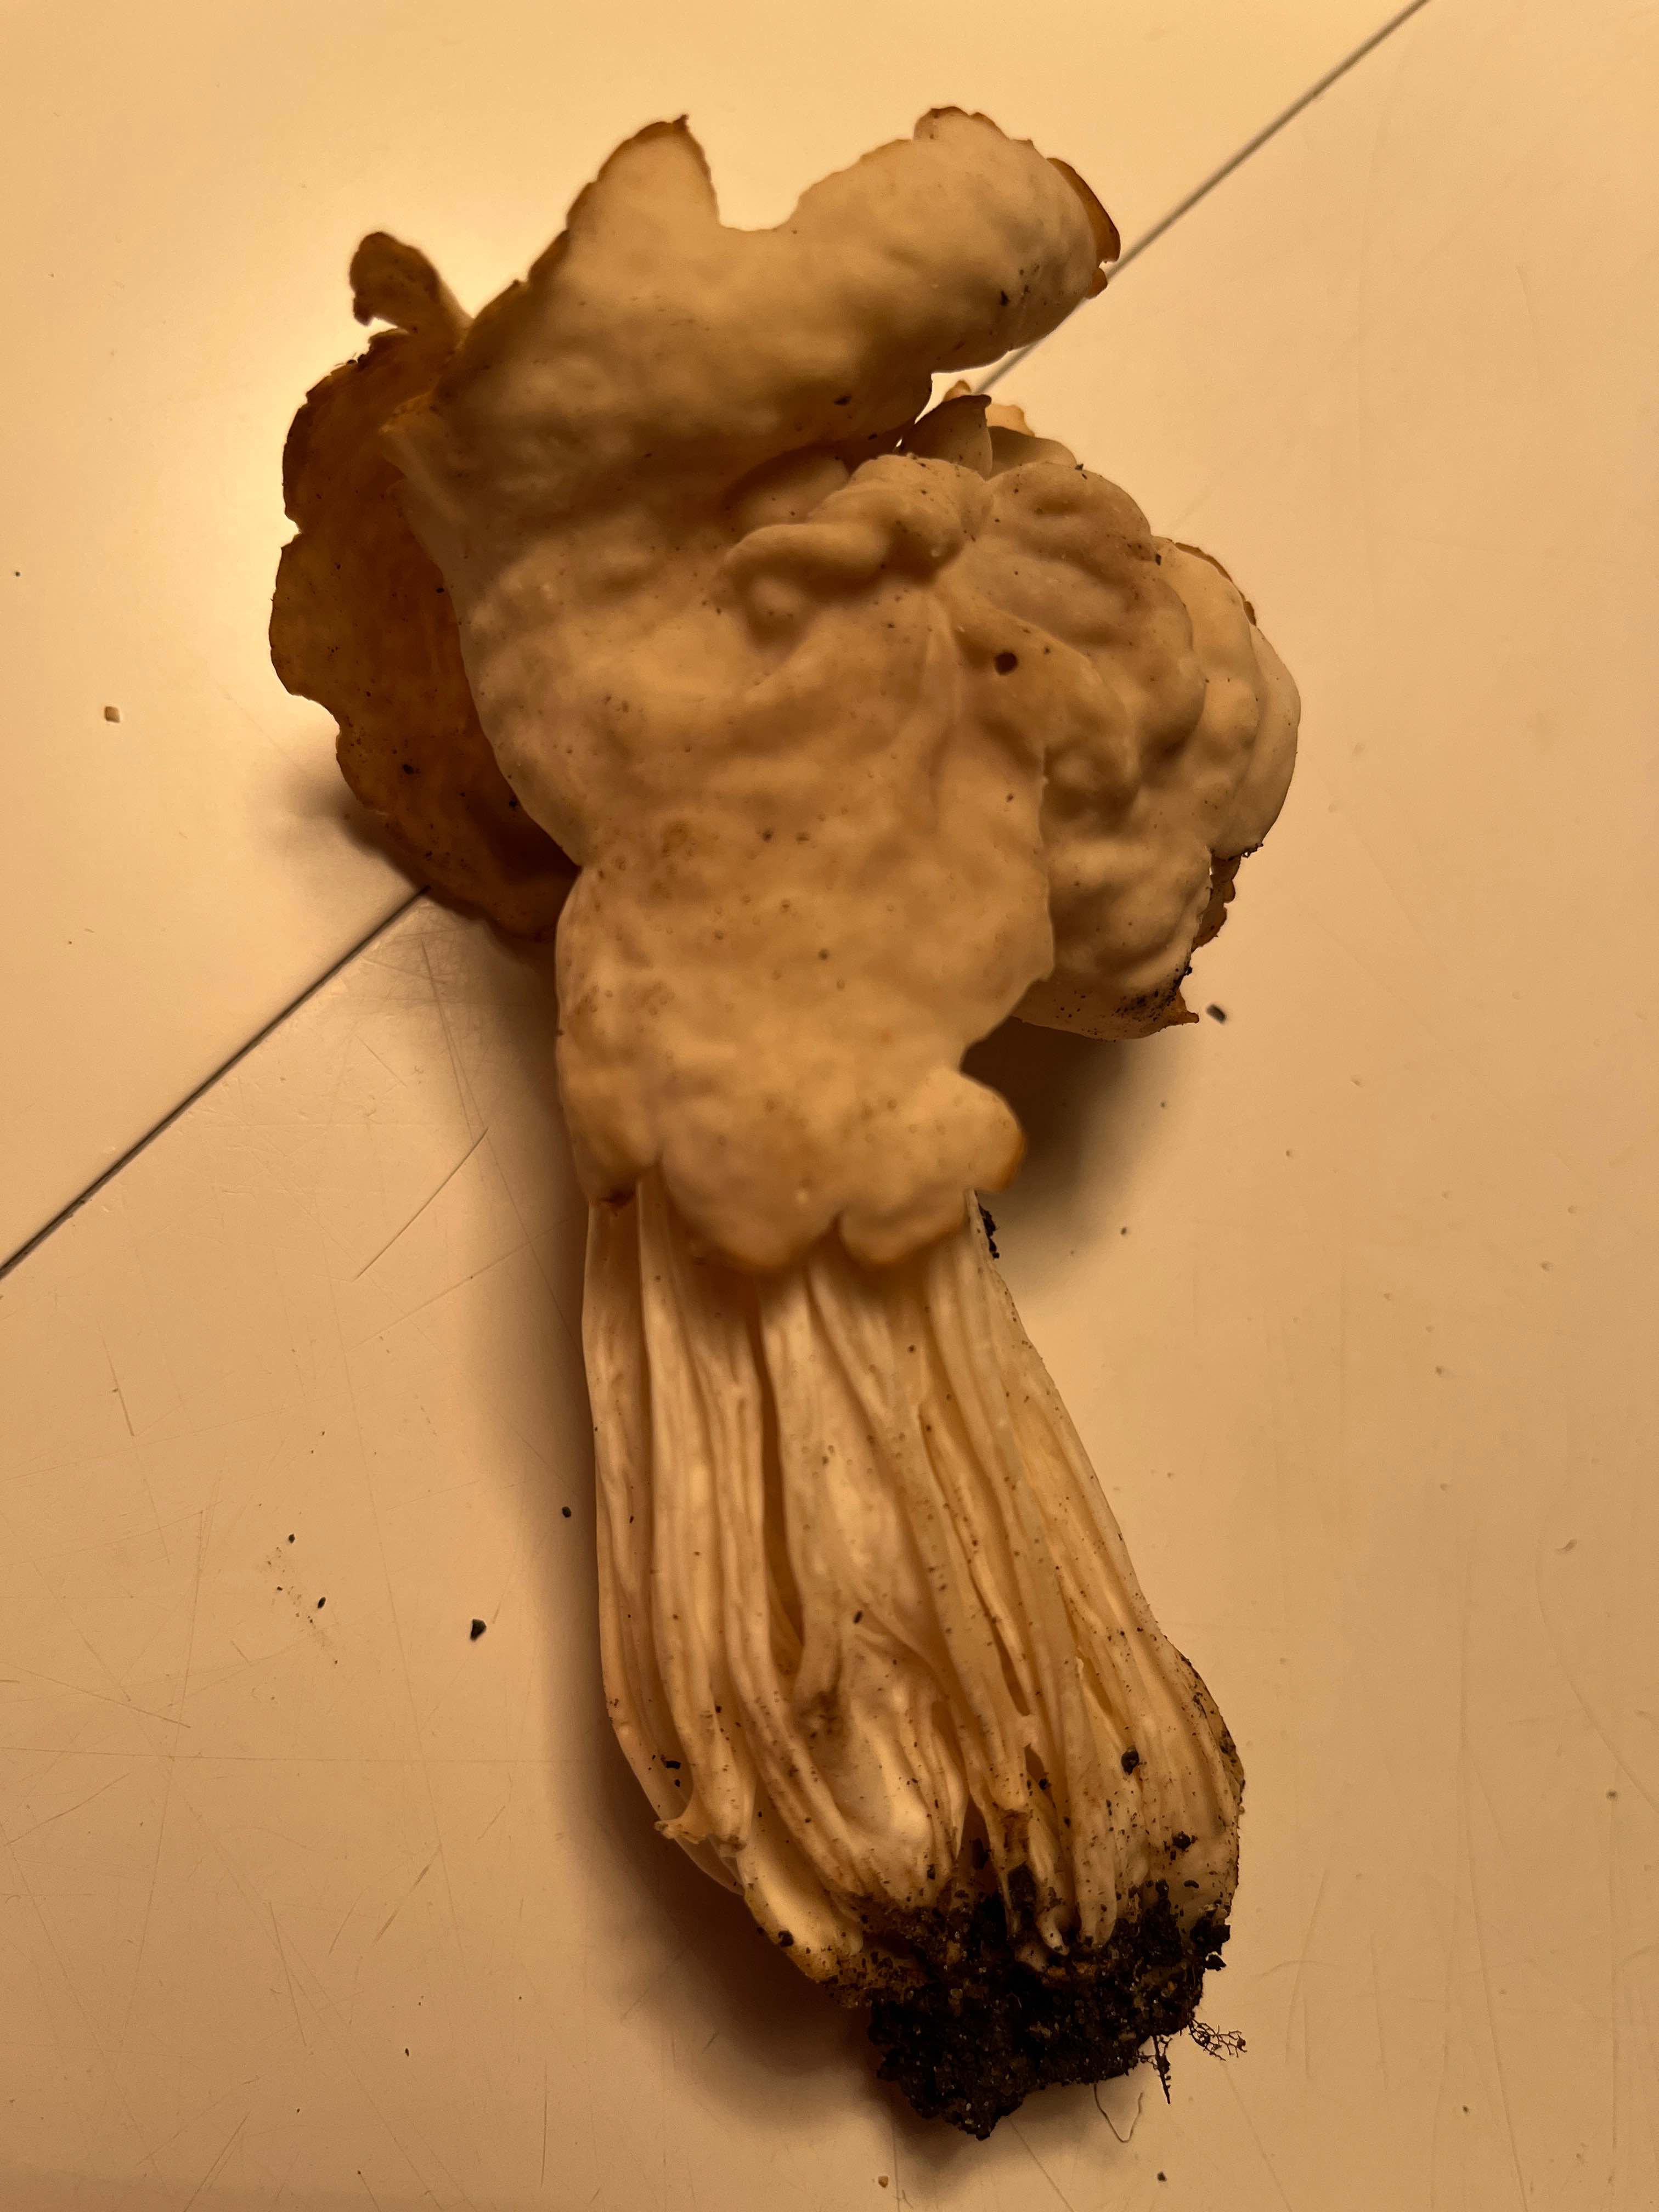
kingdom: Fungi
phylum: Ascomycota
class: Pezizomycetes
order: Pezizales
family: Helvellaceae
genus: Helvella
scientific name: Helvella crispa
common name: kruset foldhat
